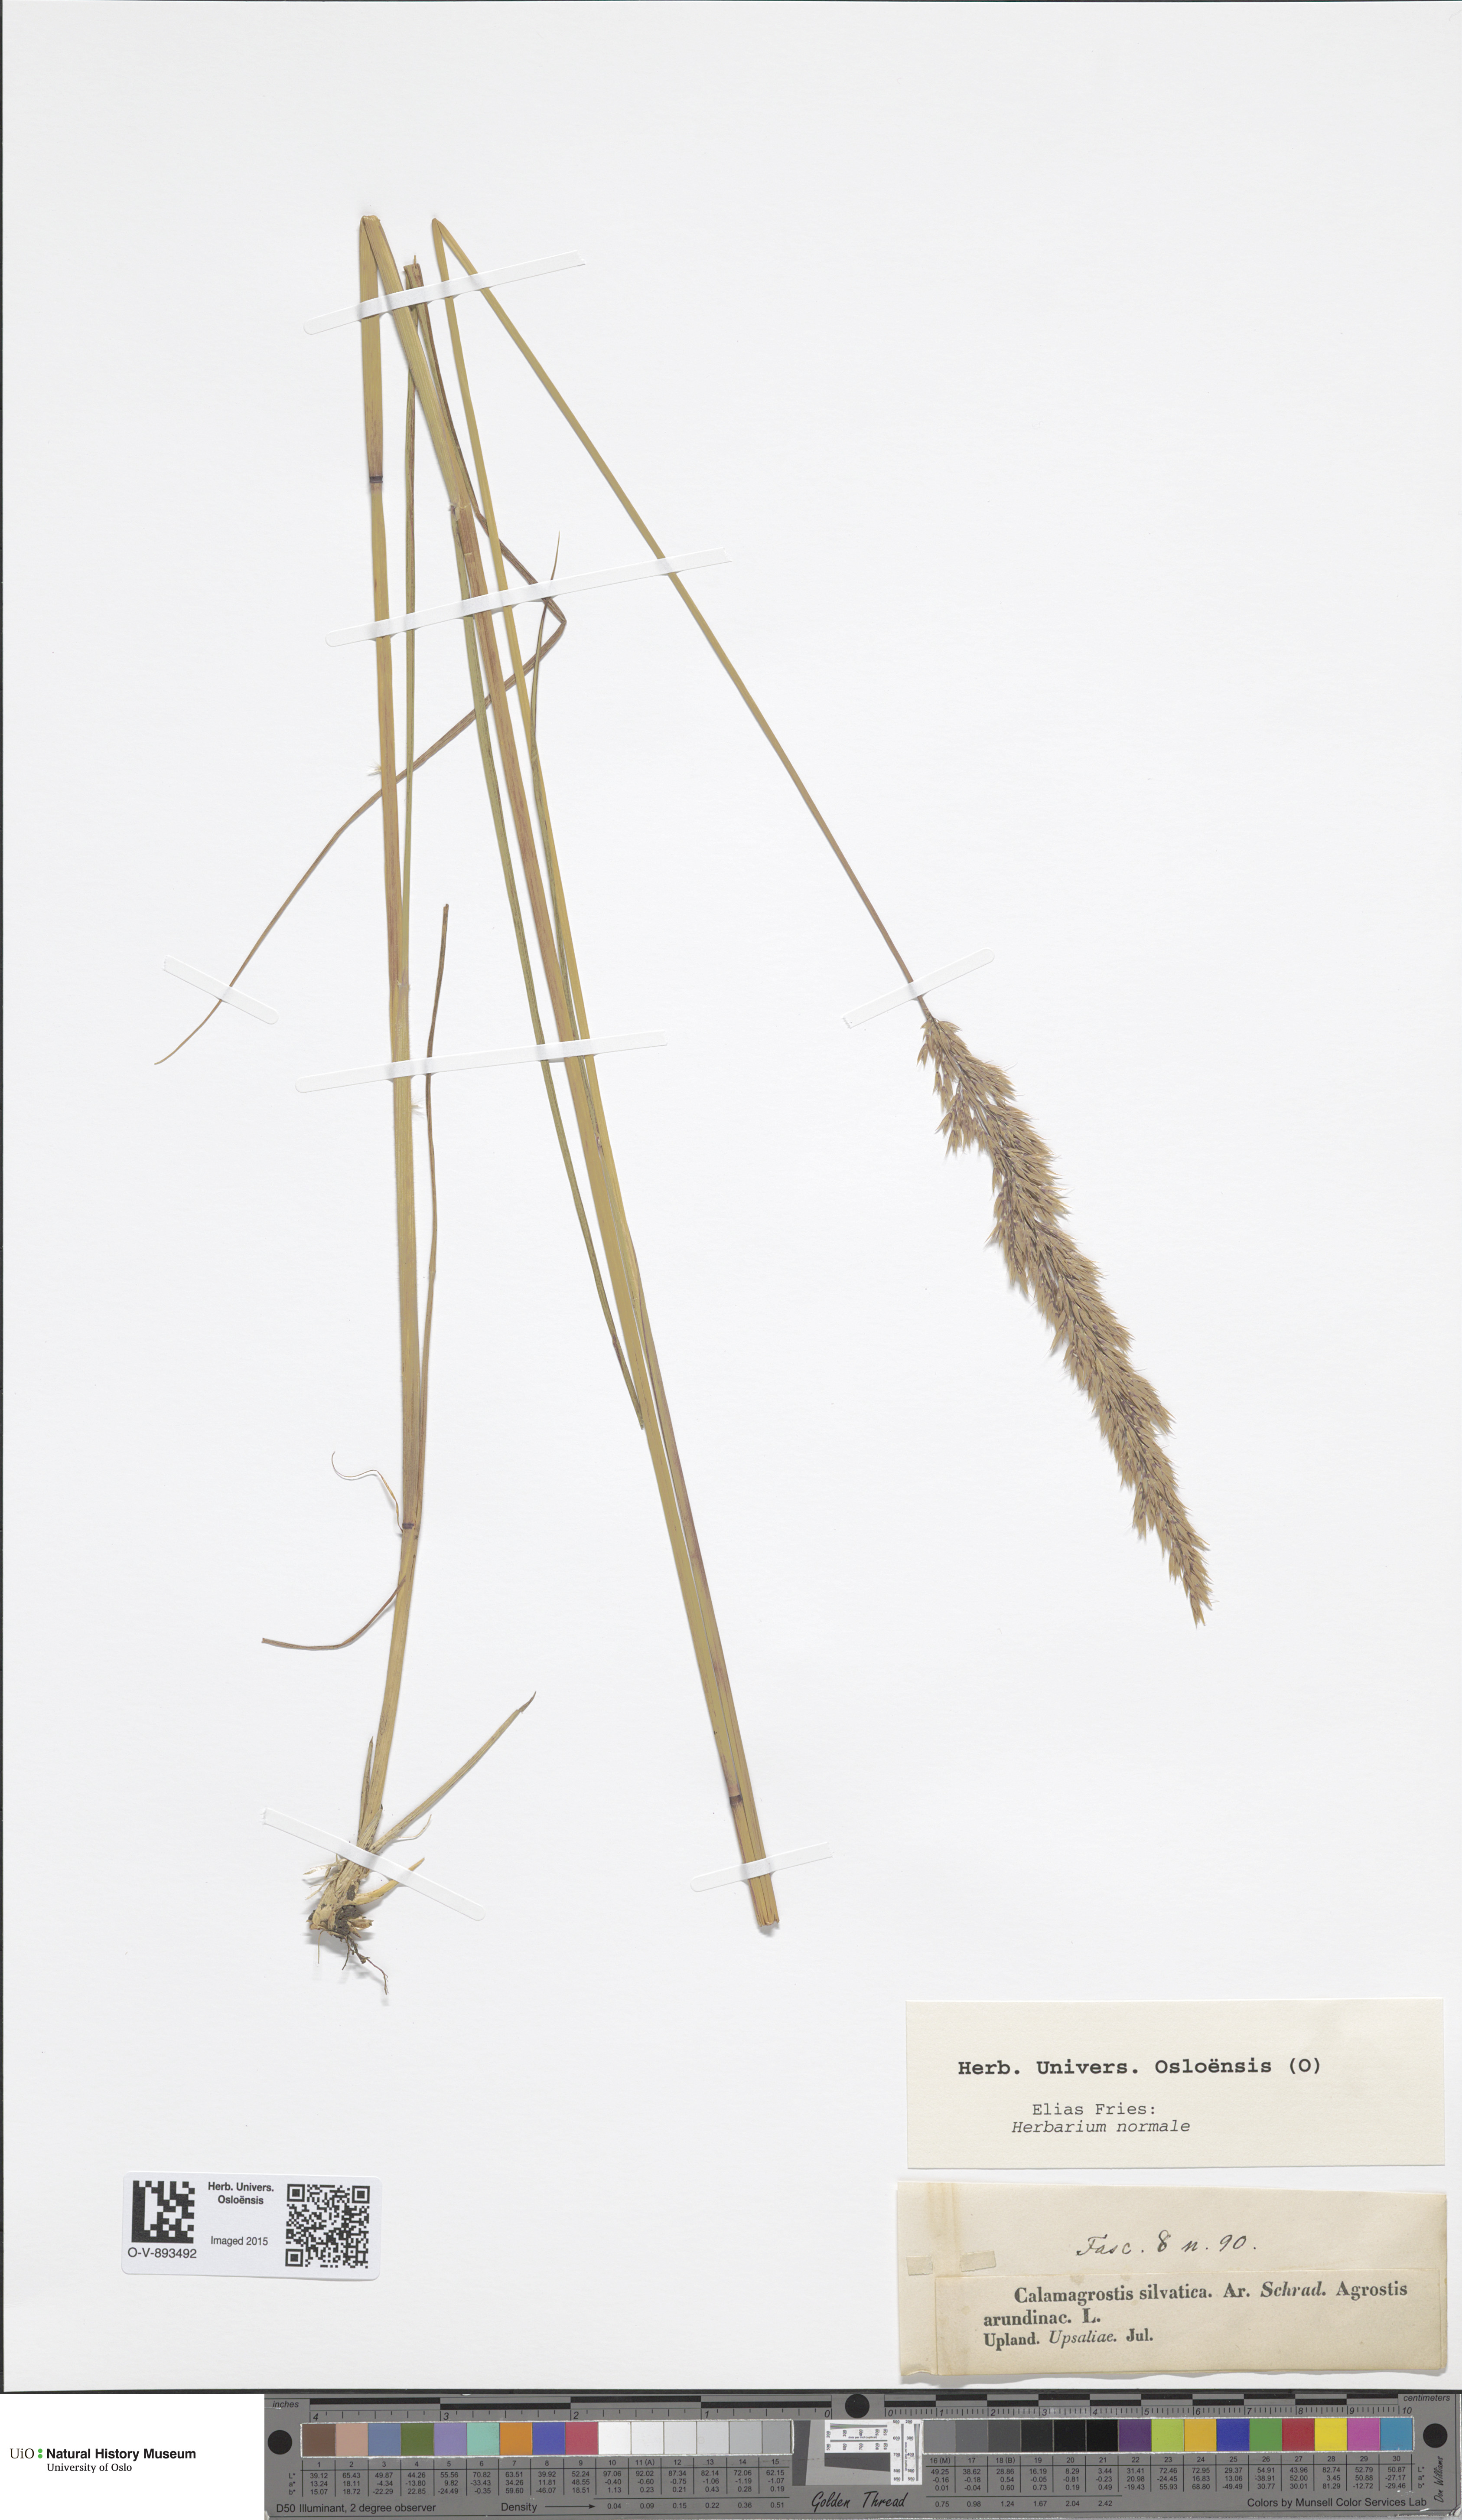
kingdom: Plantae
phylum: Tracheophyta
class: Liliopsida
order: Poales
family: Poaceae
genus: Calamagrostis
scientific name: Calamagrostis arundinacea
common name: Metskastik
